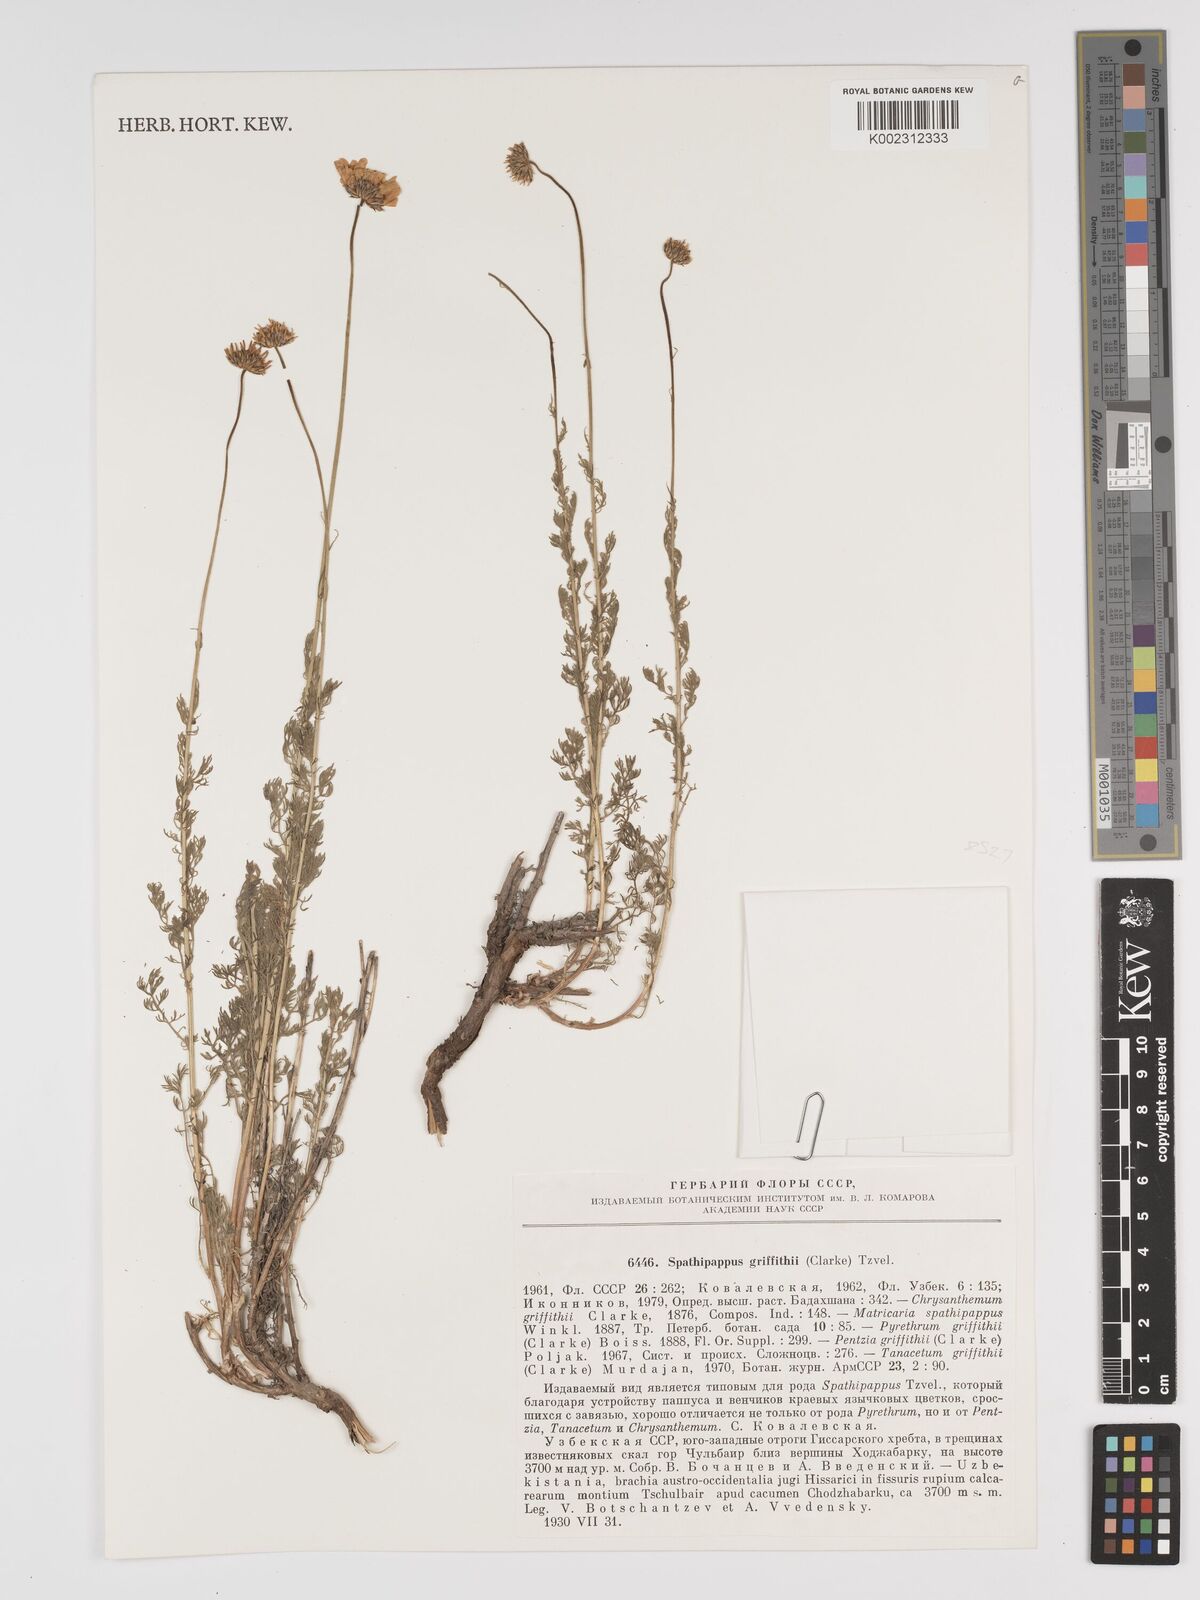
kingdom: Plantae
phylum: Tracheophyta
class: Magnoliopsida
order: Asterales
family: Asteraceae
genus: Tanacetum
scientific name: Tanacetum griffithii
